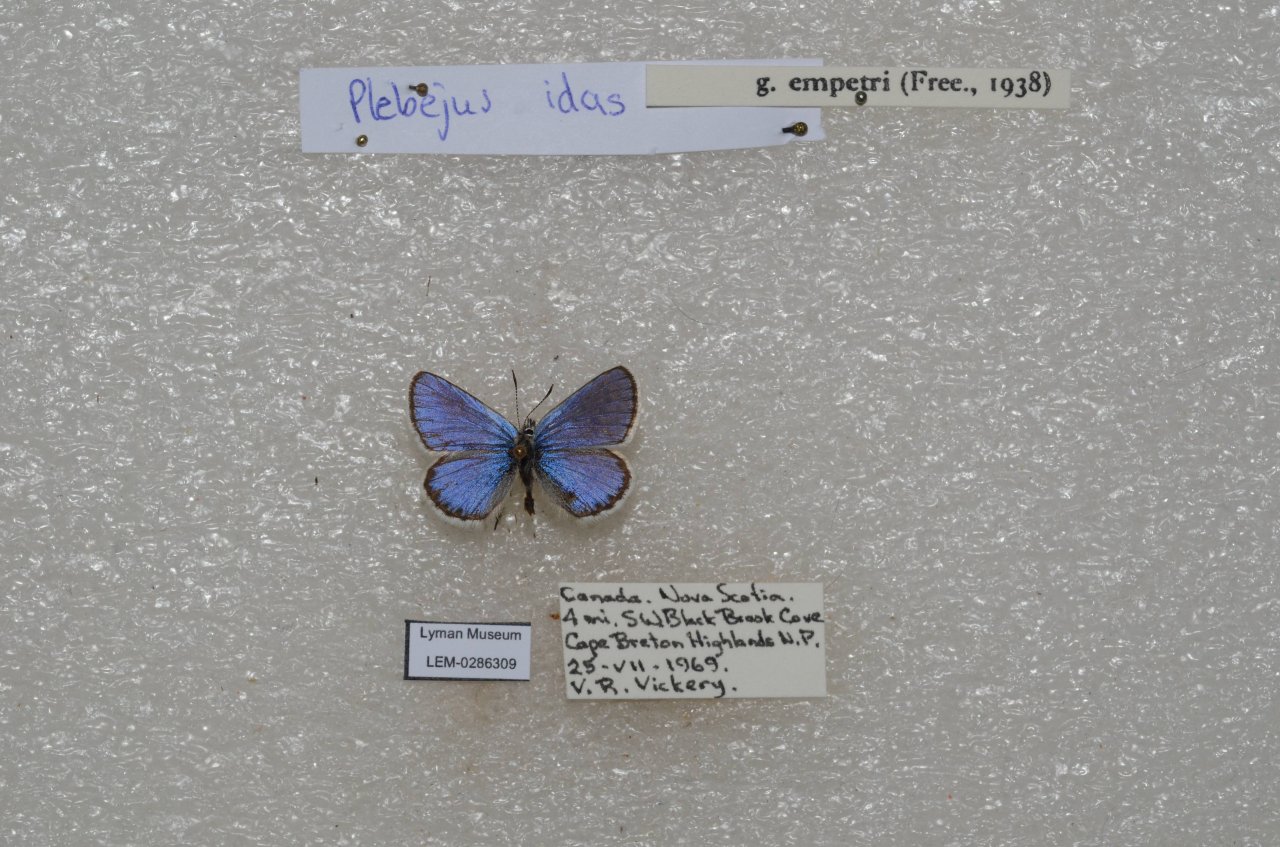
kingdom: Animalia
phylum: Arthropoda
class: Insecta
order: Lepidoptera
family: Lycaenidae
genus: Lycaeides
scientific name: Lycaeides idas
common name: Northern Blue
